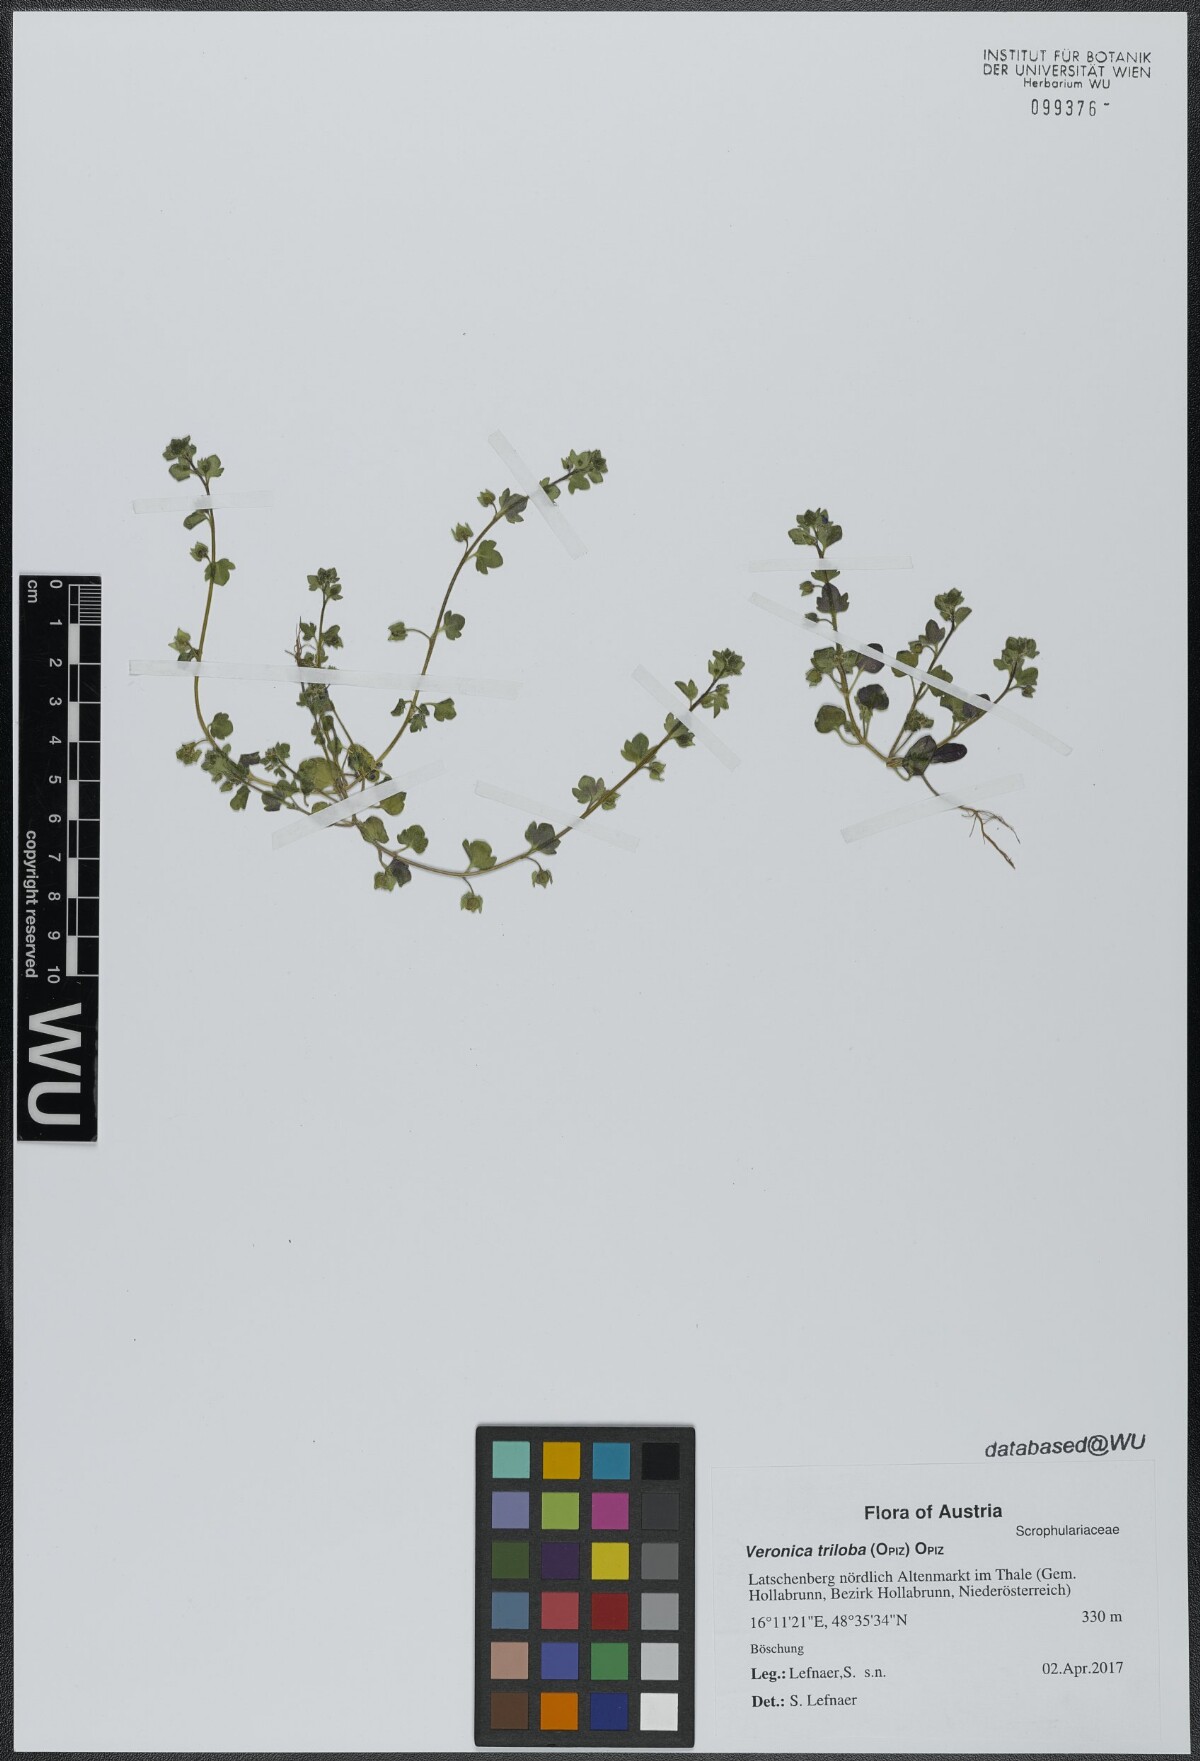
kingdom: Plantae
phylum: Tracheophyta
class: Magnoliopsida
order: Lamiales
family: Plantaginaceae
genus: Veronica
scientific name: Veronica triloba
